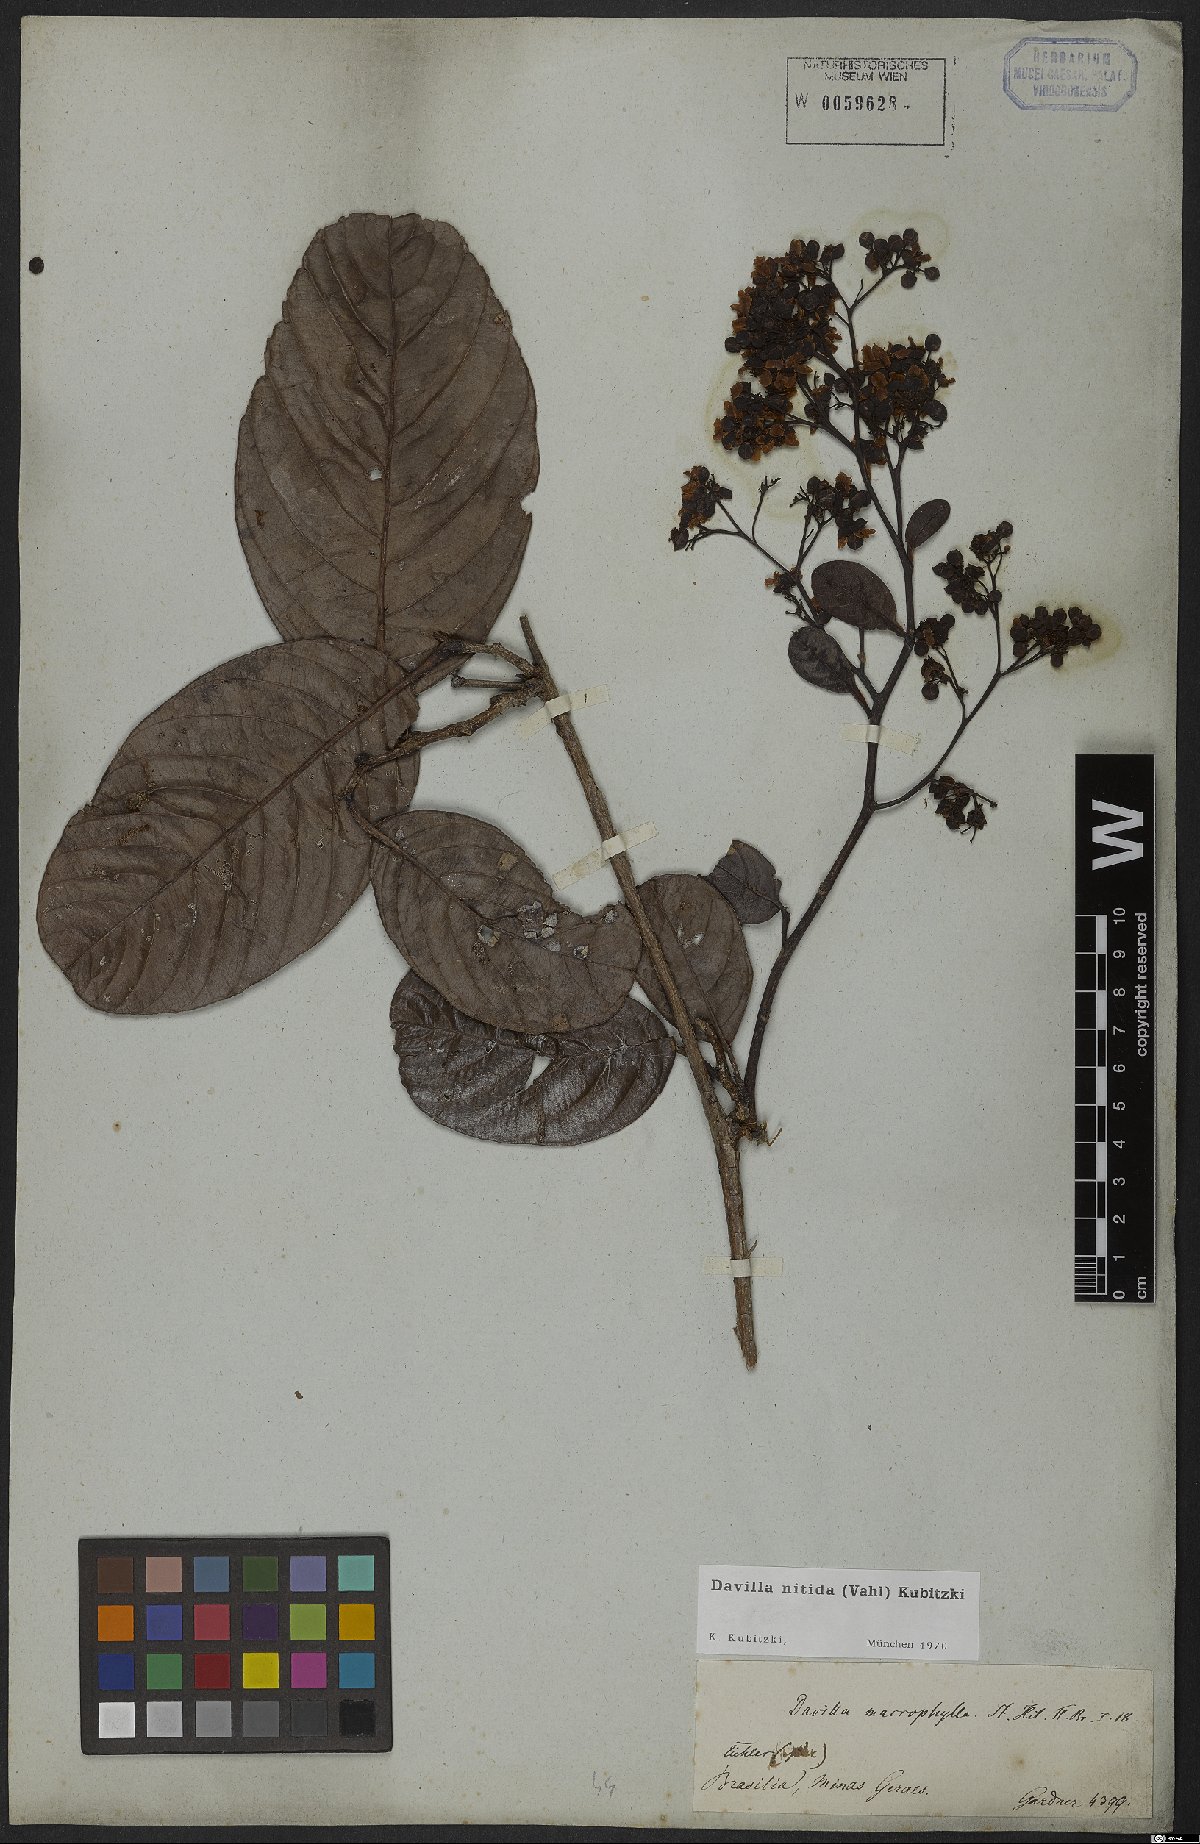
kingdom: Plantae
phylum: Tracheophyta
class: Magnoliopsida
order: Dilleniales
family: Dilleniaceae
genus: Davilla
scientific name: Davilla nitida
